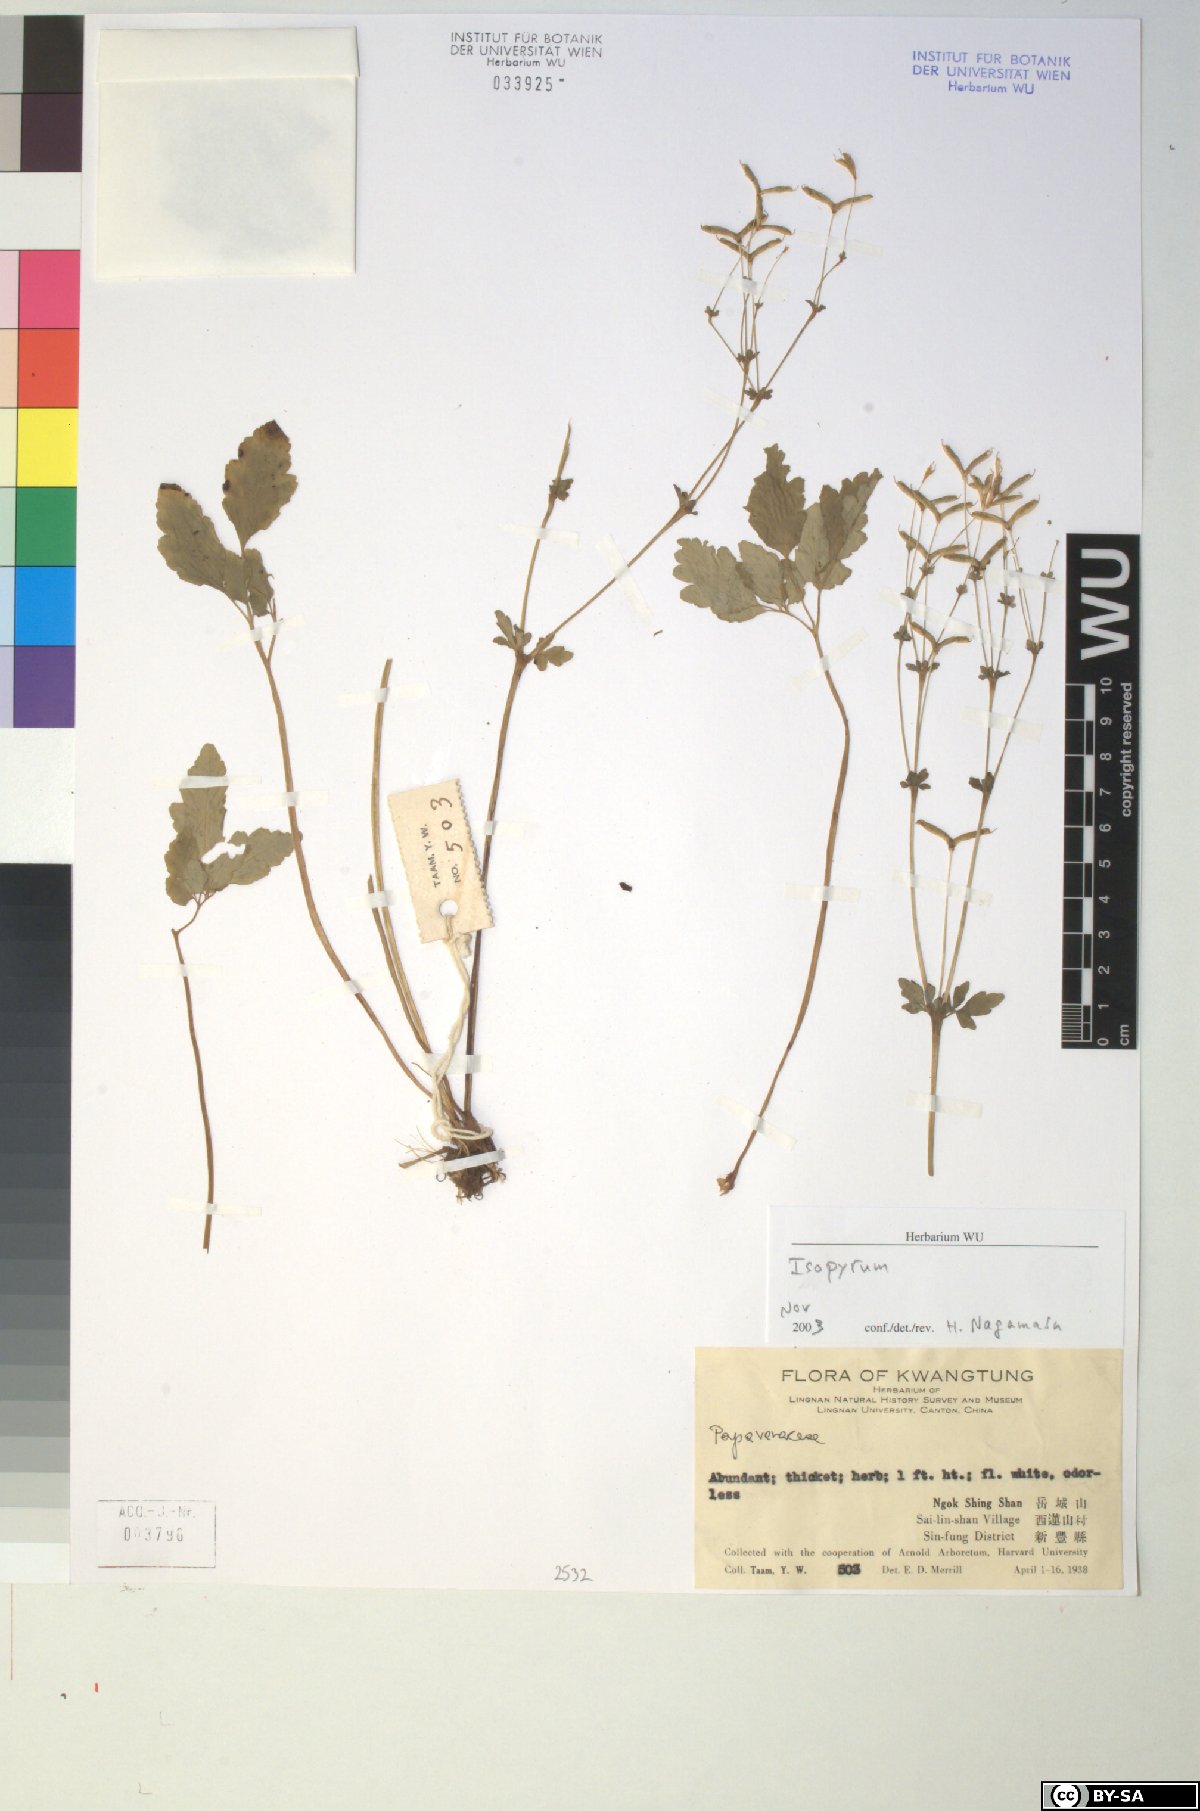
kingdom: Plantae
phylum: Tracheophyta
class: Magnoliopsida
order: Ranunculales
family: Ranunculaceae
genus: Isopyrum
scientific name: Isopyrum
